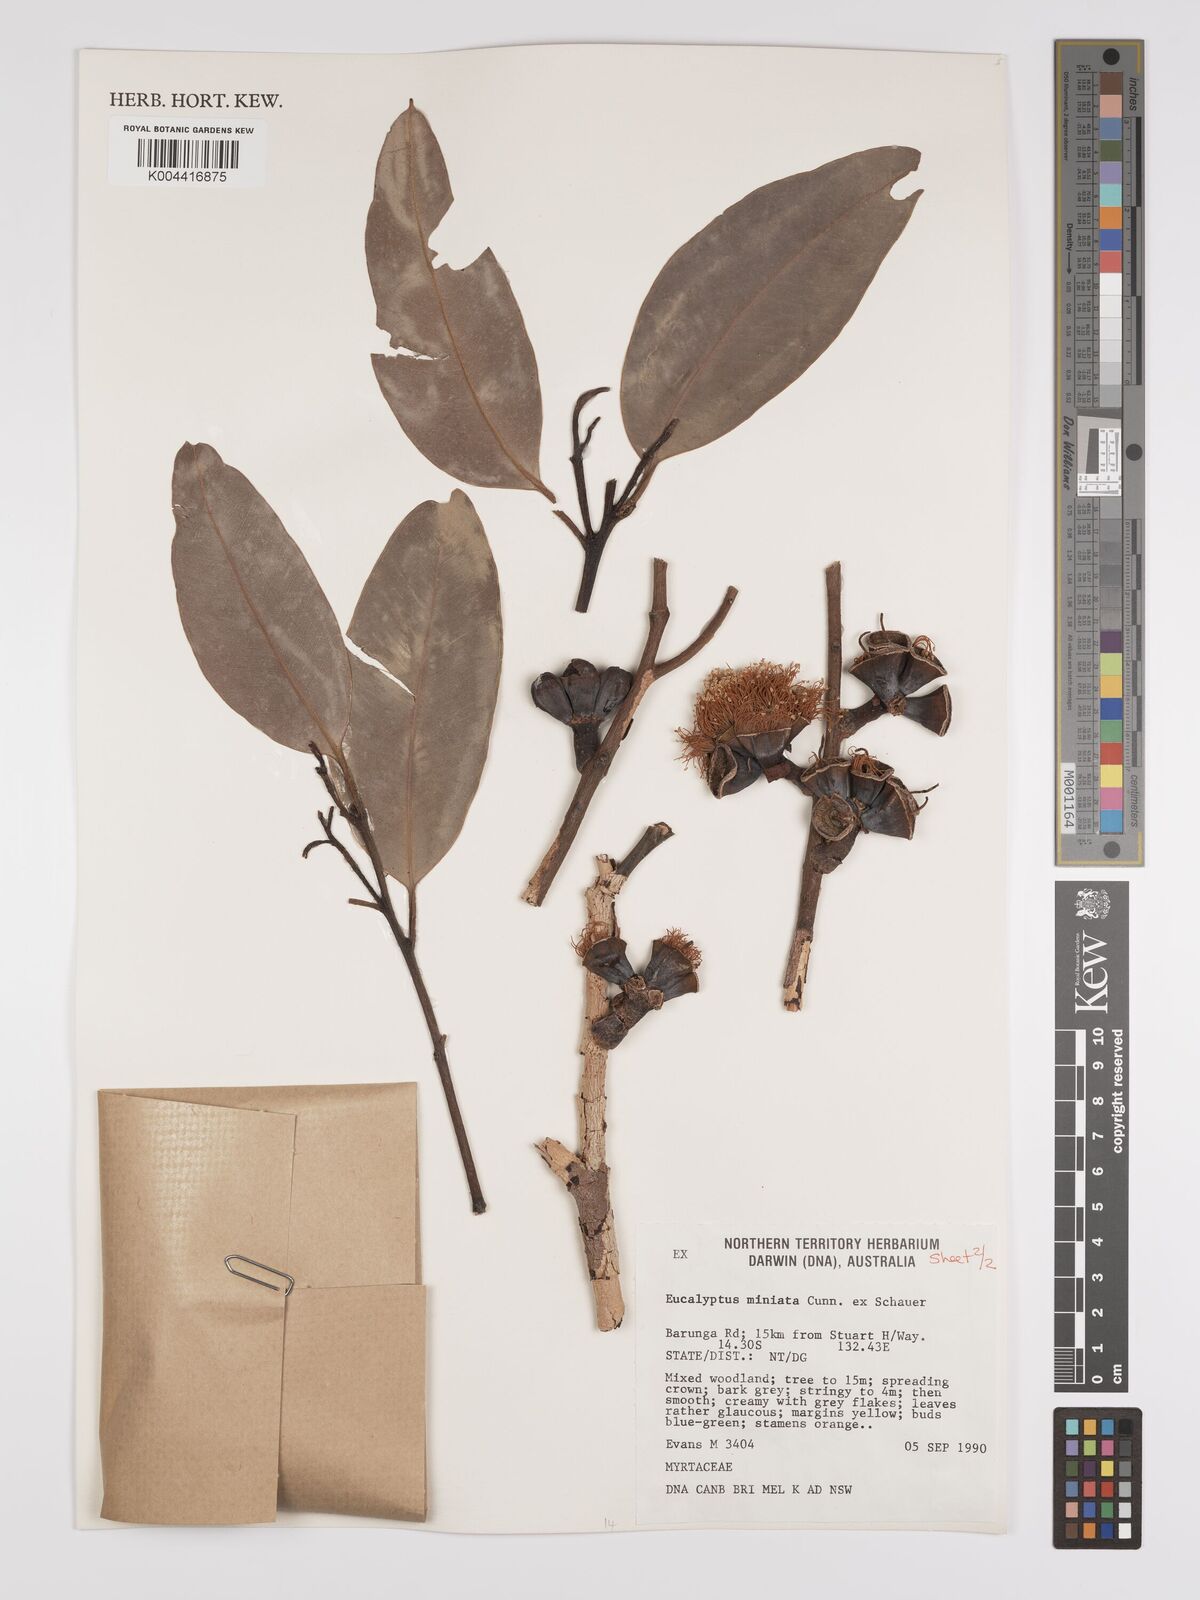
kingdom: Plantae
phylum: Tracheophyta
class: Magnoliopsida
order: Myrtales
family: Myrtaceae
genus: Eucalyptus
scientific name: Eucalyptus miniata
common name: Darwin-woollybutt
